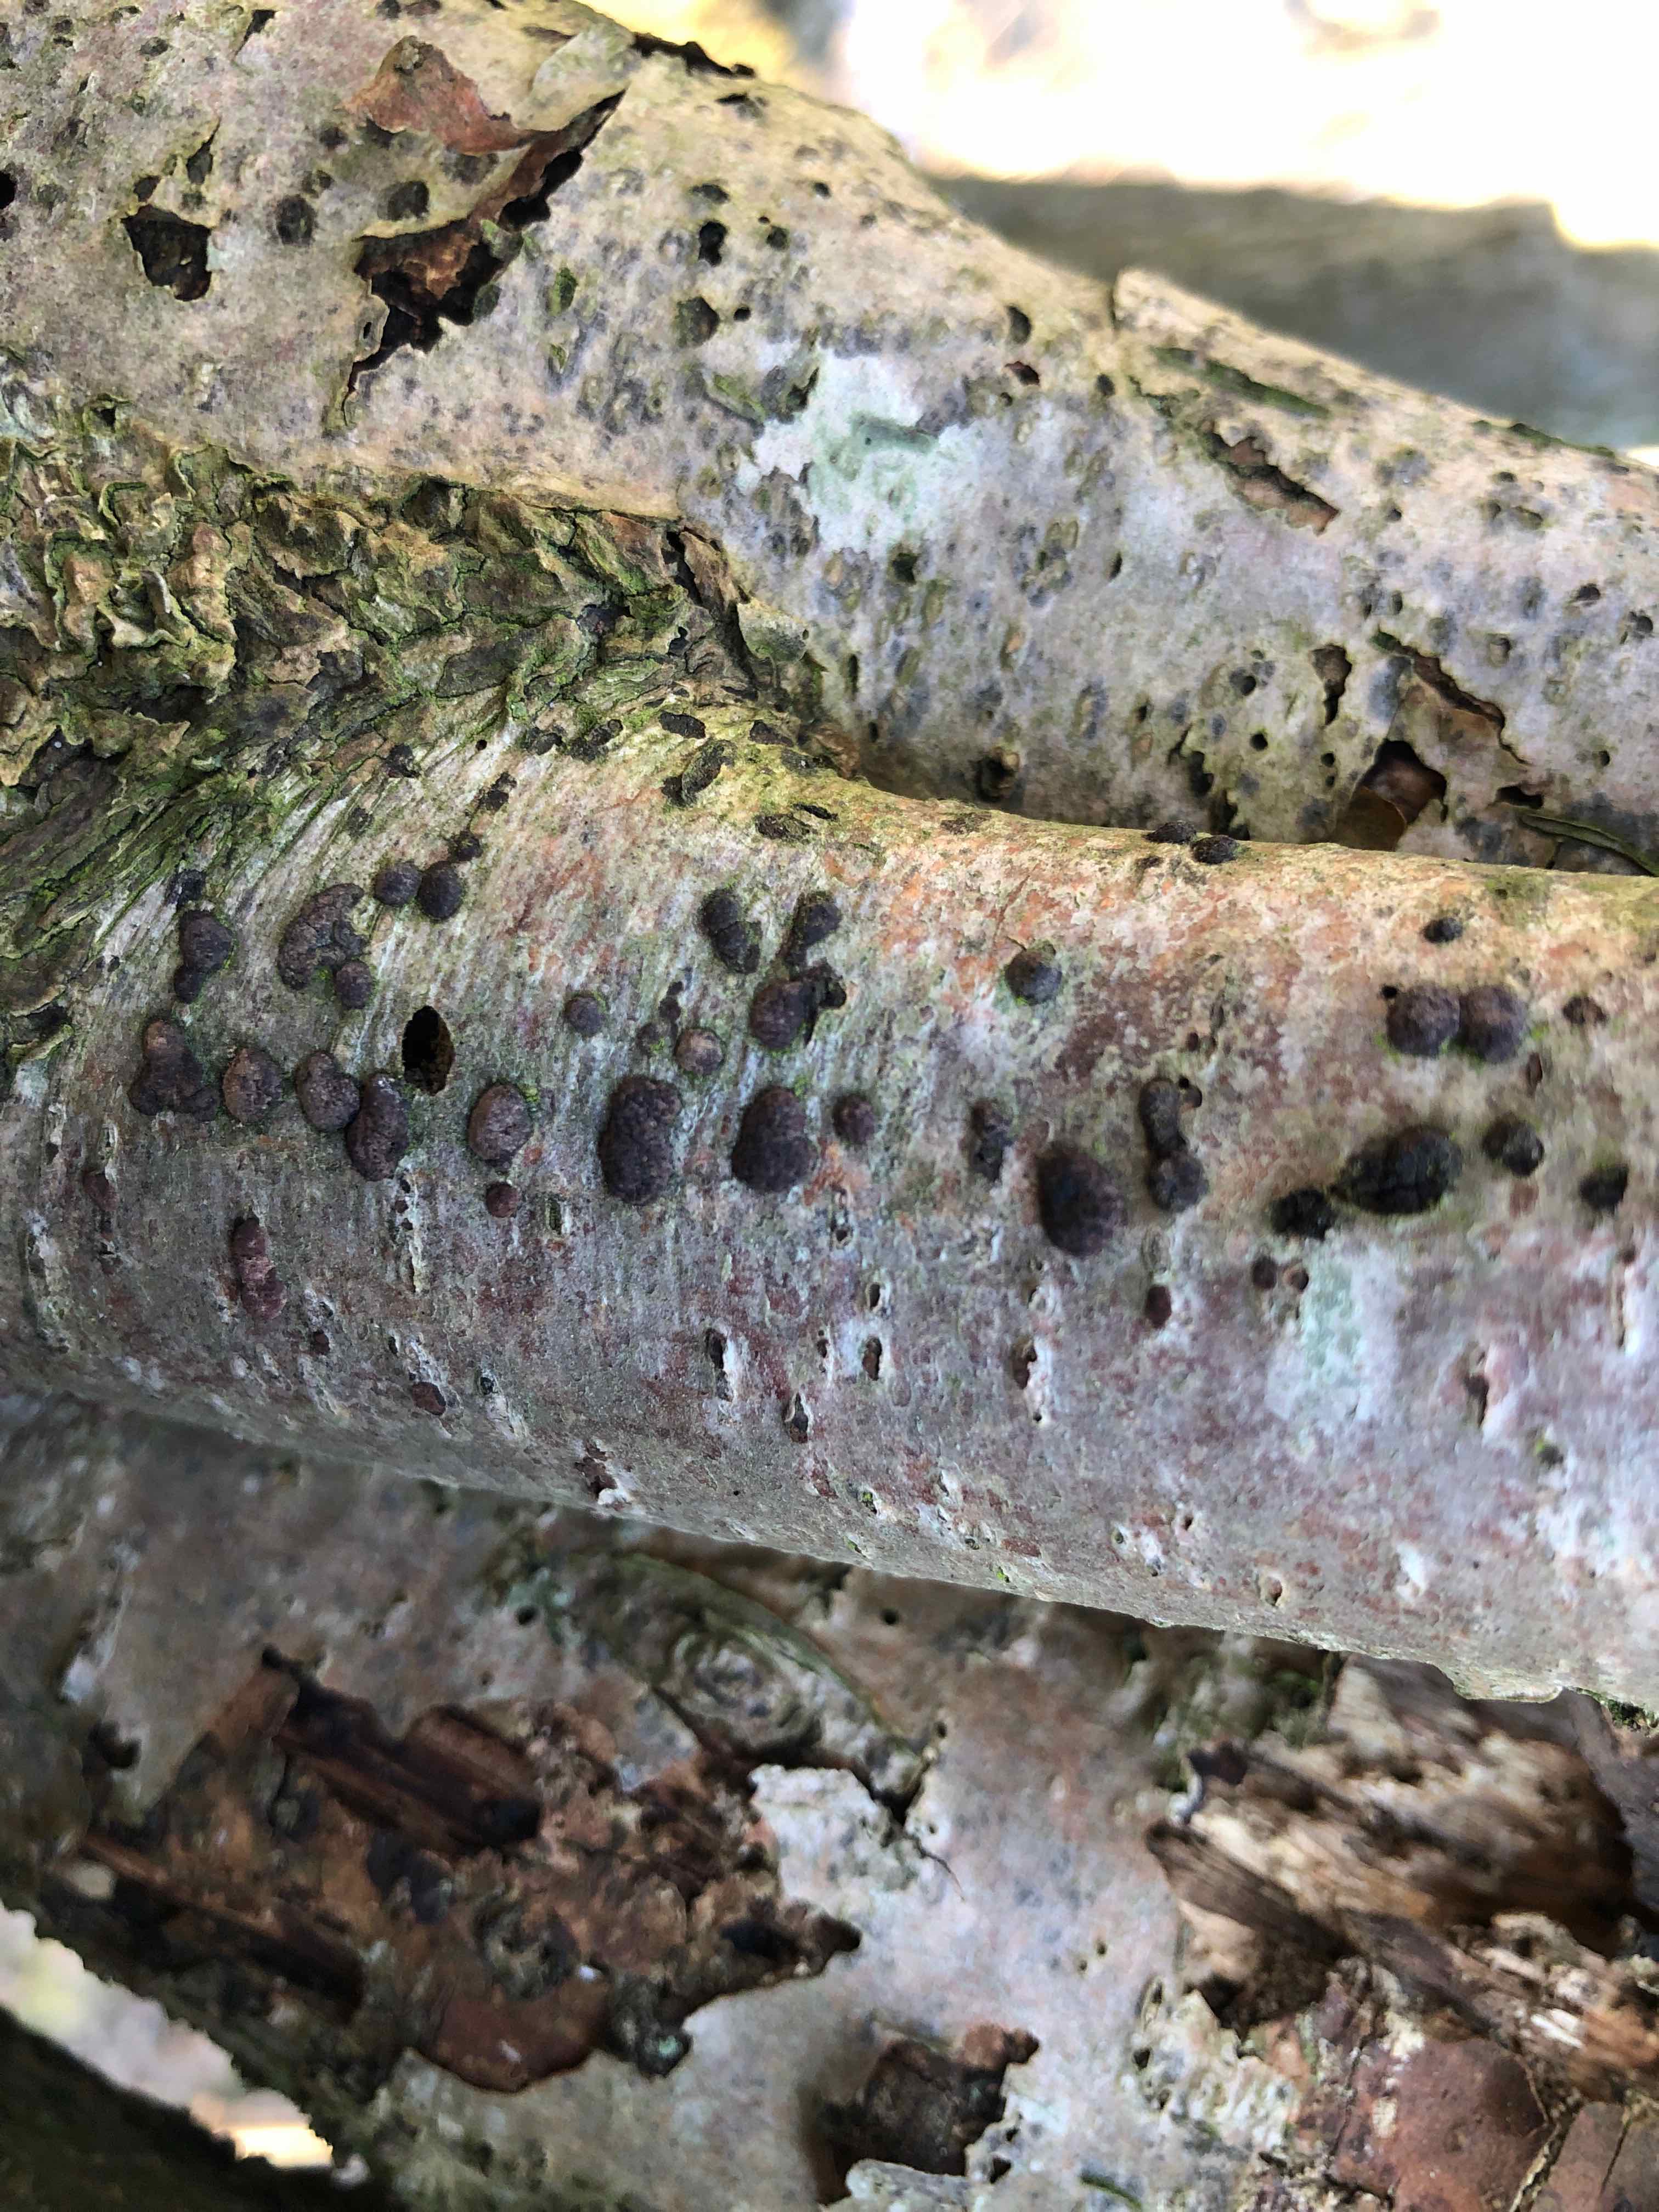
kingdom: Fungi
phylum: Ascomycota
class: Sordariomycetes
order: Xylariales
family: Hypoxylaceae
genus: Hypoxylon
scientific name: Hypoxylon fuscum
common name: kegleformet kulbær
